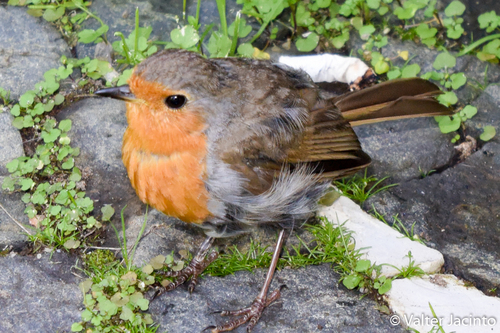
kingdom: Animalia
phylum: Chordata
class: Aves
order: Passeriformes
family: Muscicapidae
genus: Erithacus
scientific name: Erithacus rubecula
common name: European robin
